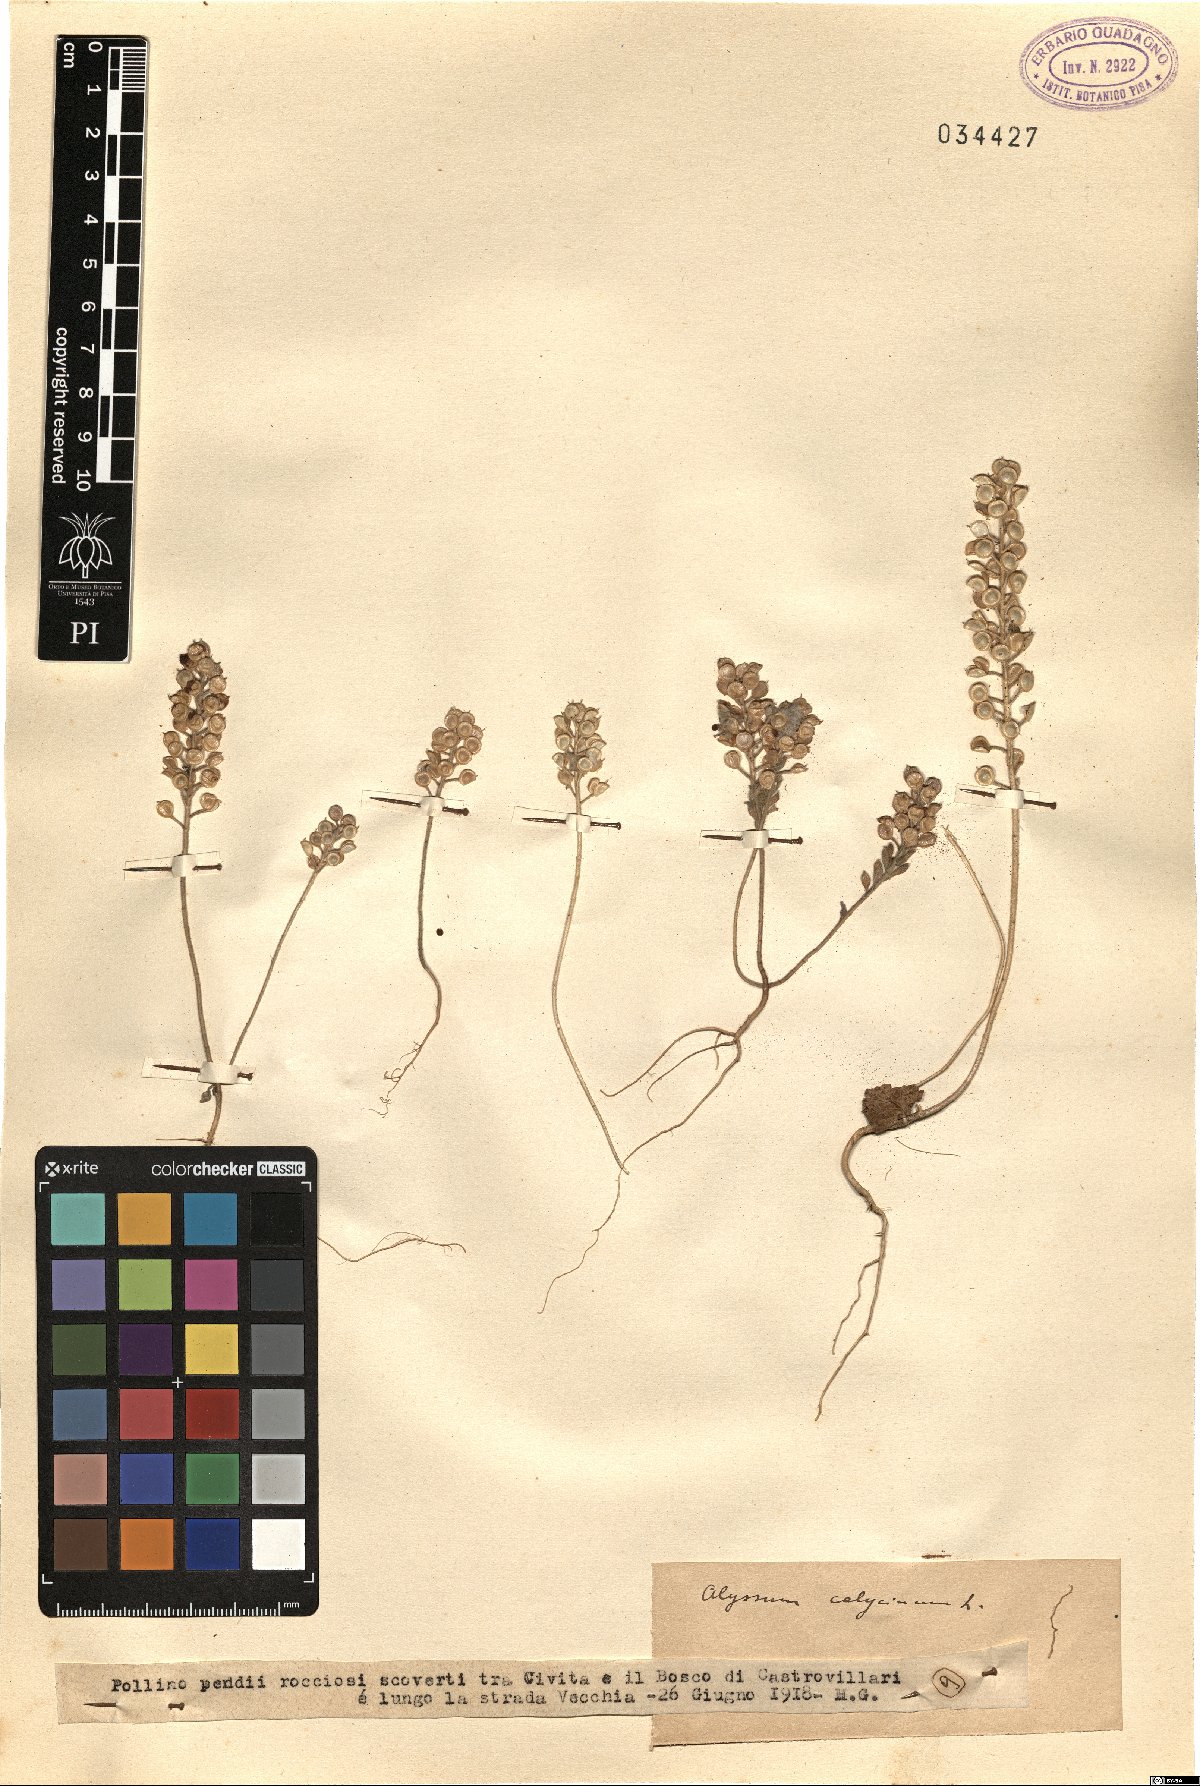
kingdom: Plantae
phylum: Tracheophyta
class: Magnoliopsida
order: Brassicales
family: Brassicaceae
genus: Alyssum
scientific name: Alyssum alyssoides
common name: Small alison
